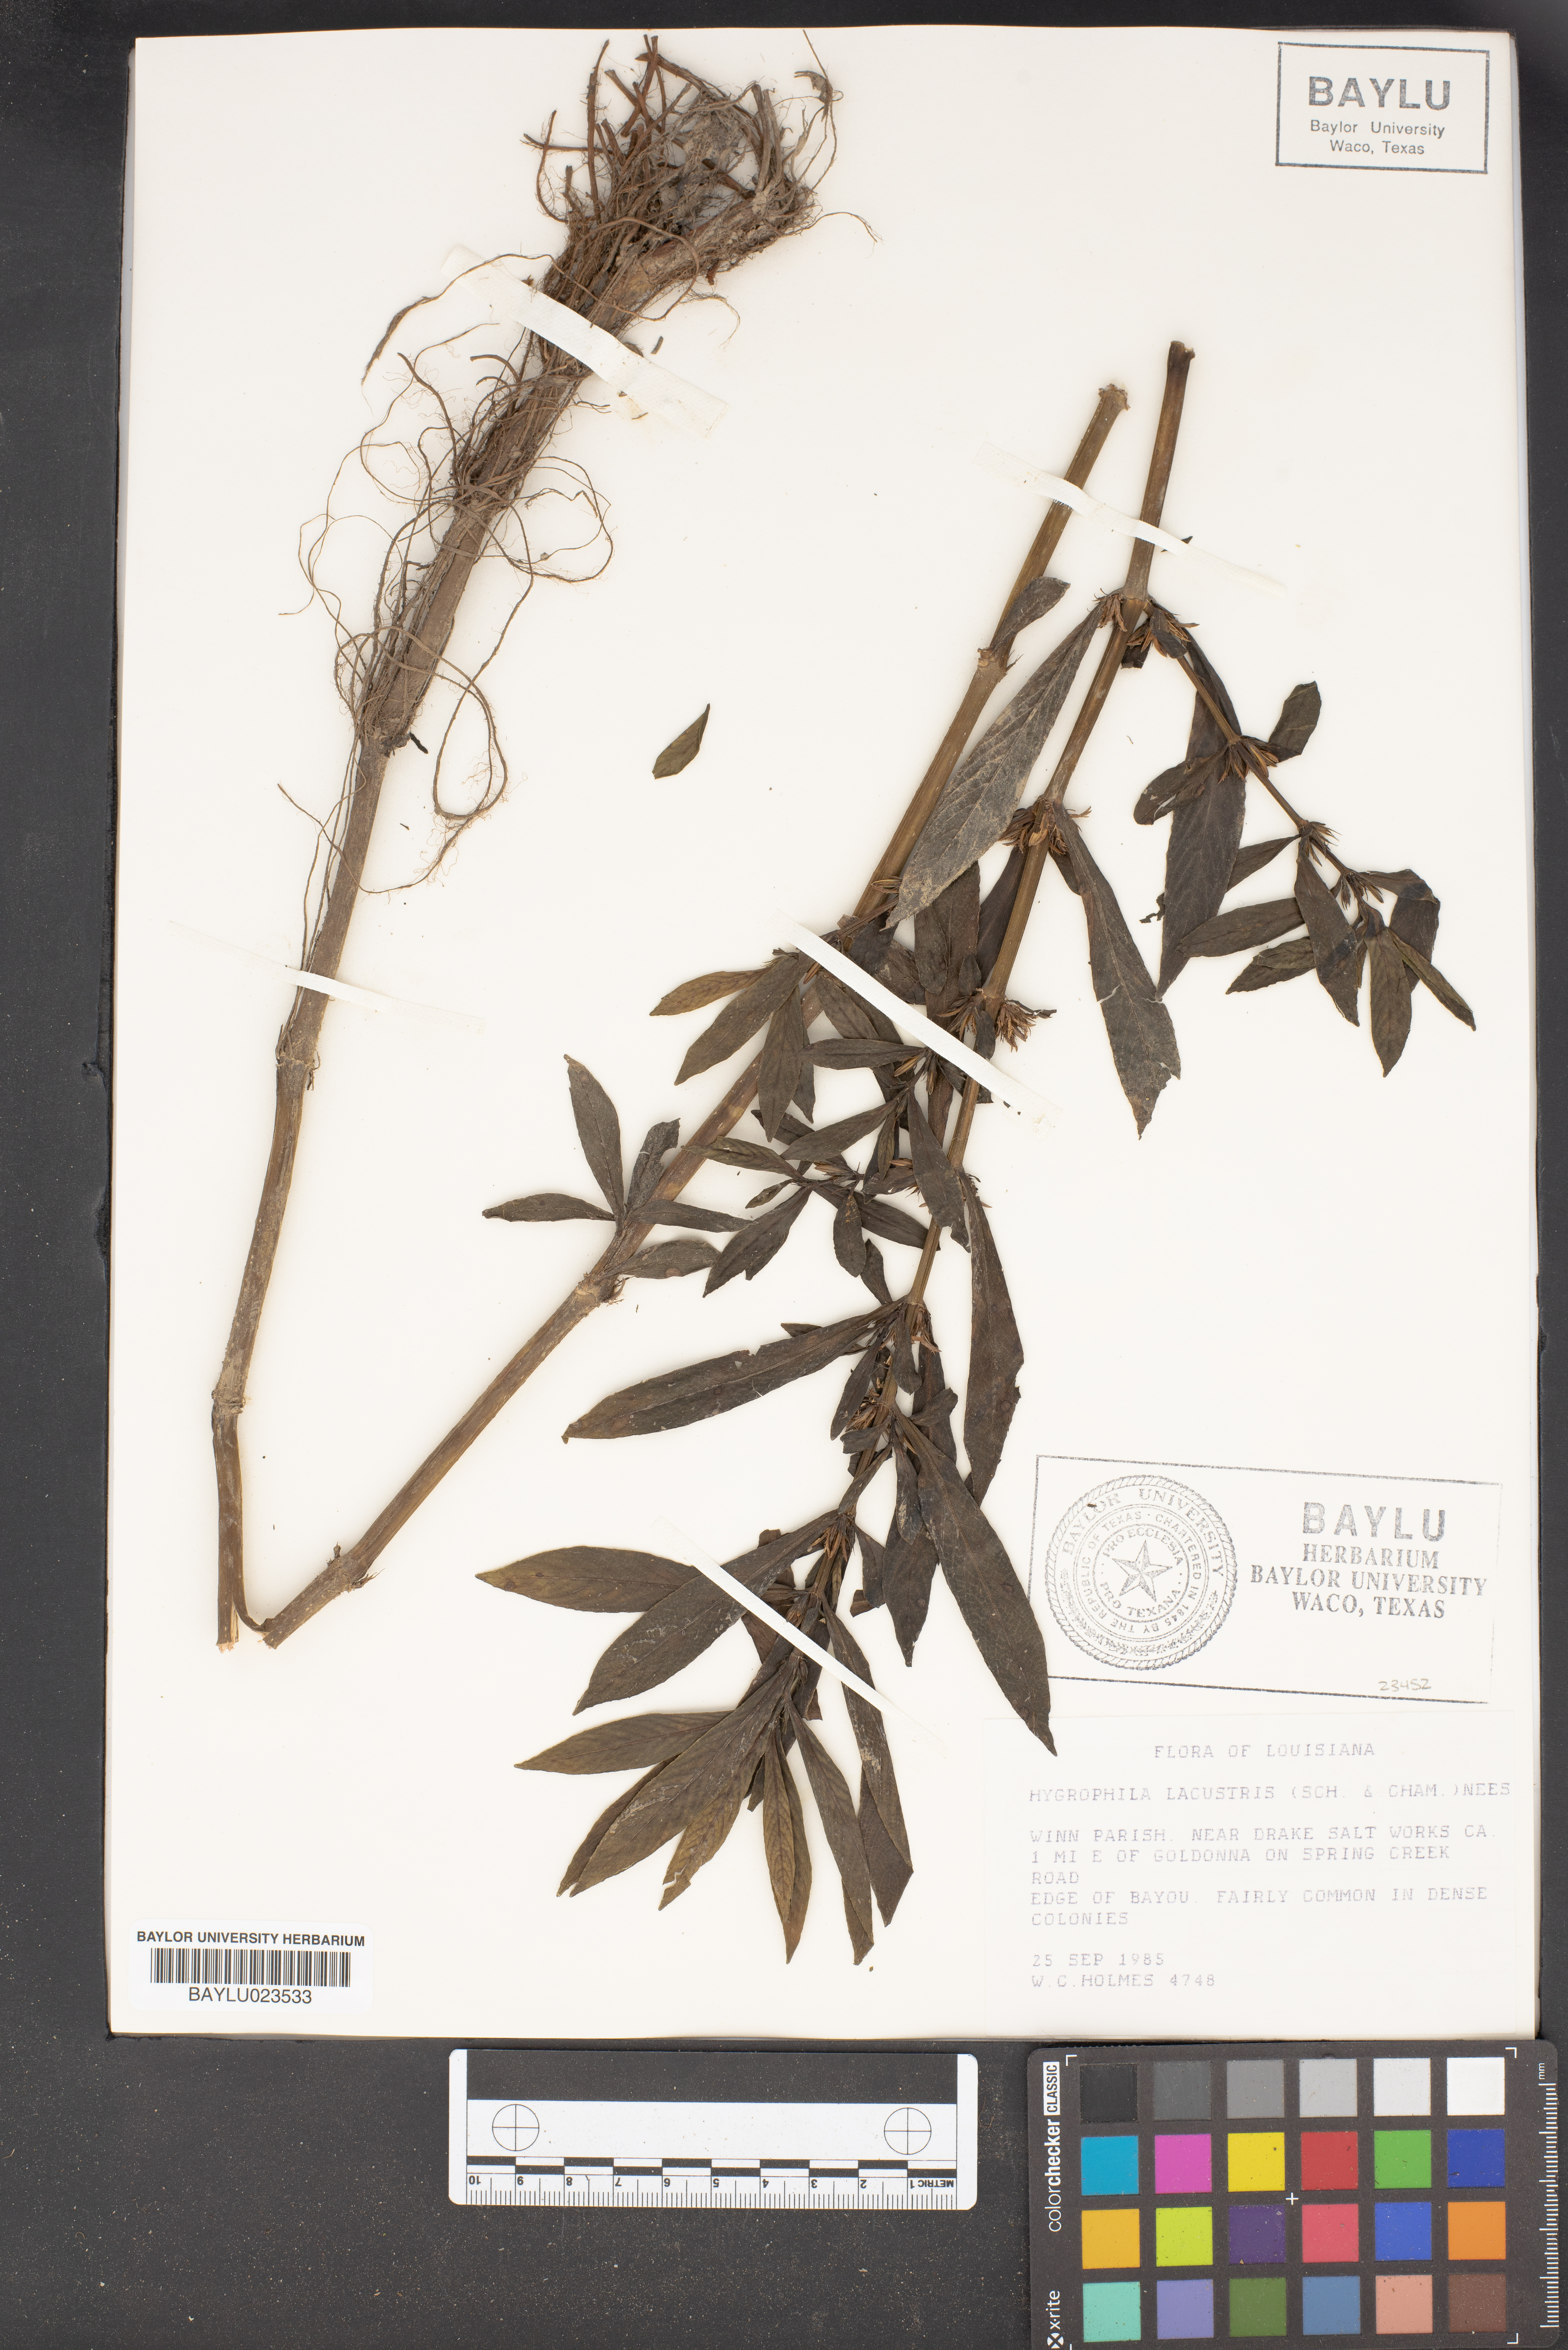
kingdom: Plantae
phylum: Tracheophyta
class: Magnoliopsida
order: Lamiales
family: Acanthaceae
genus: Hygrophila
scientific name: Hygrophila costata
